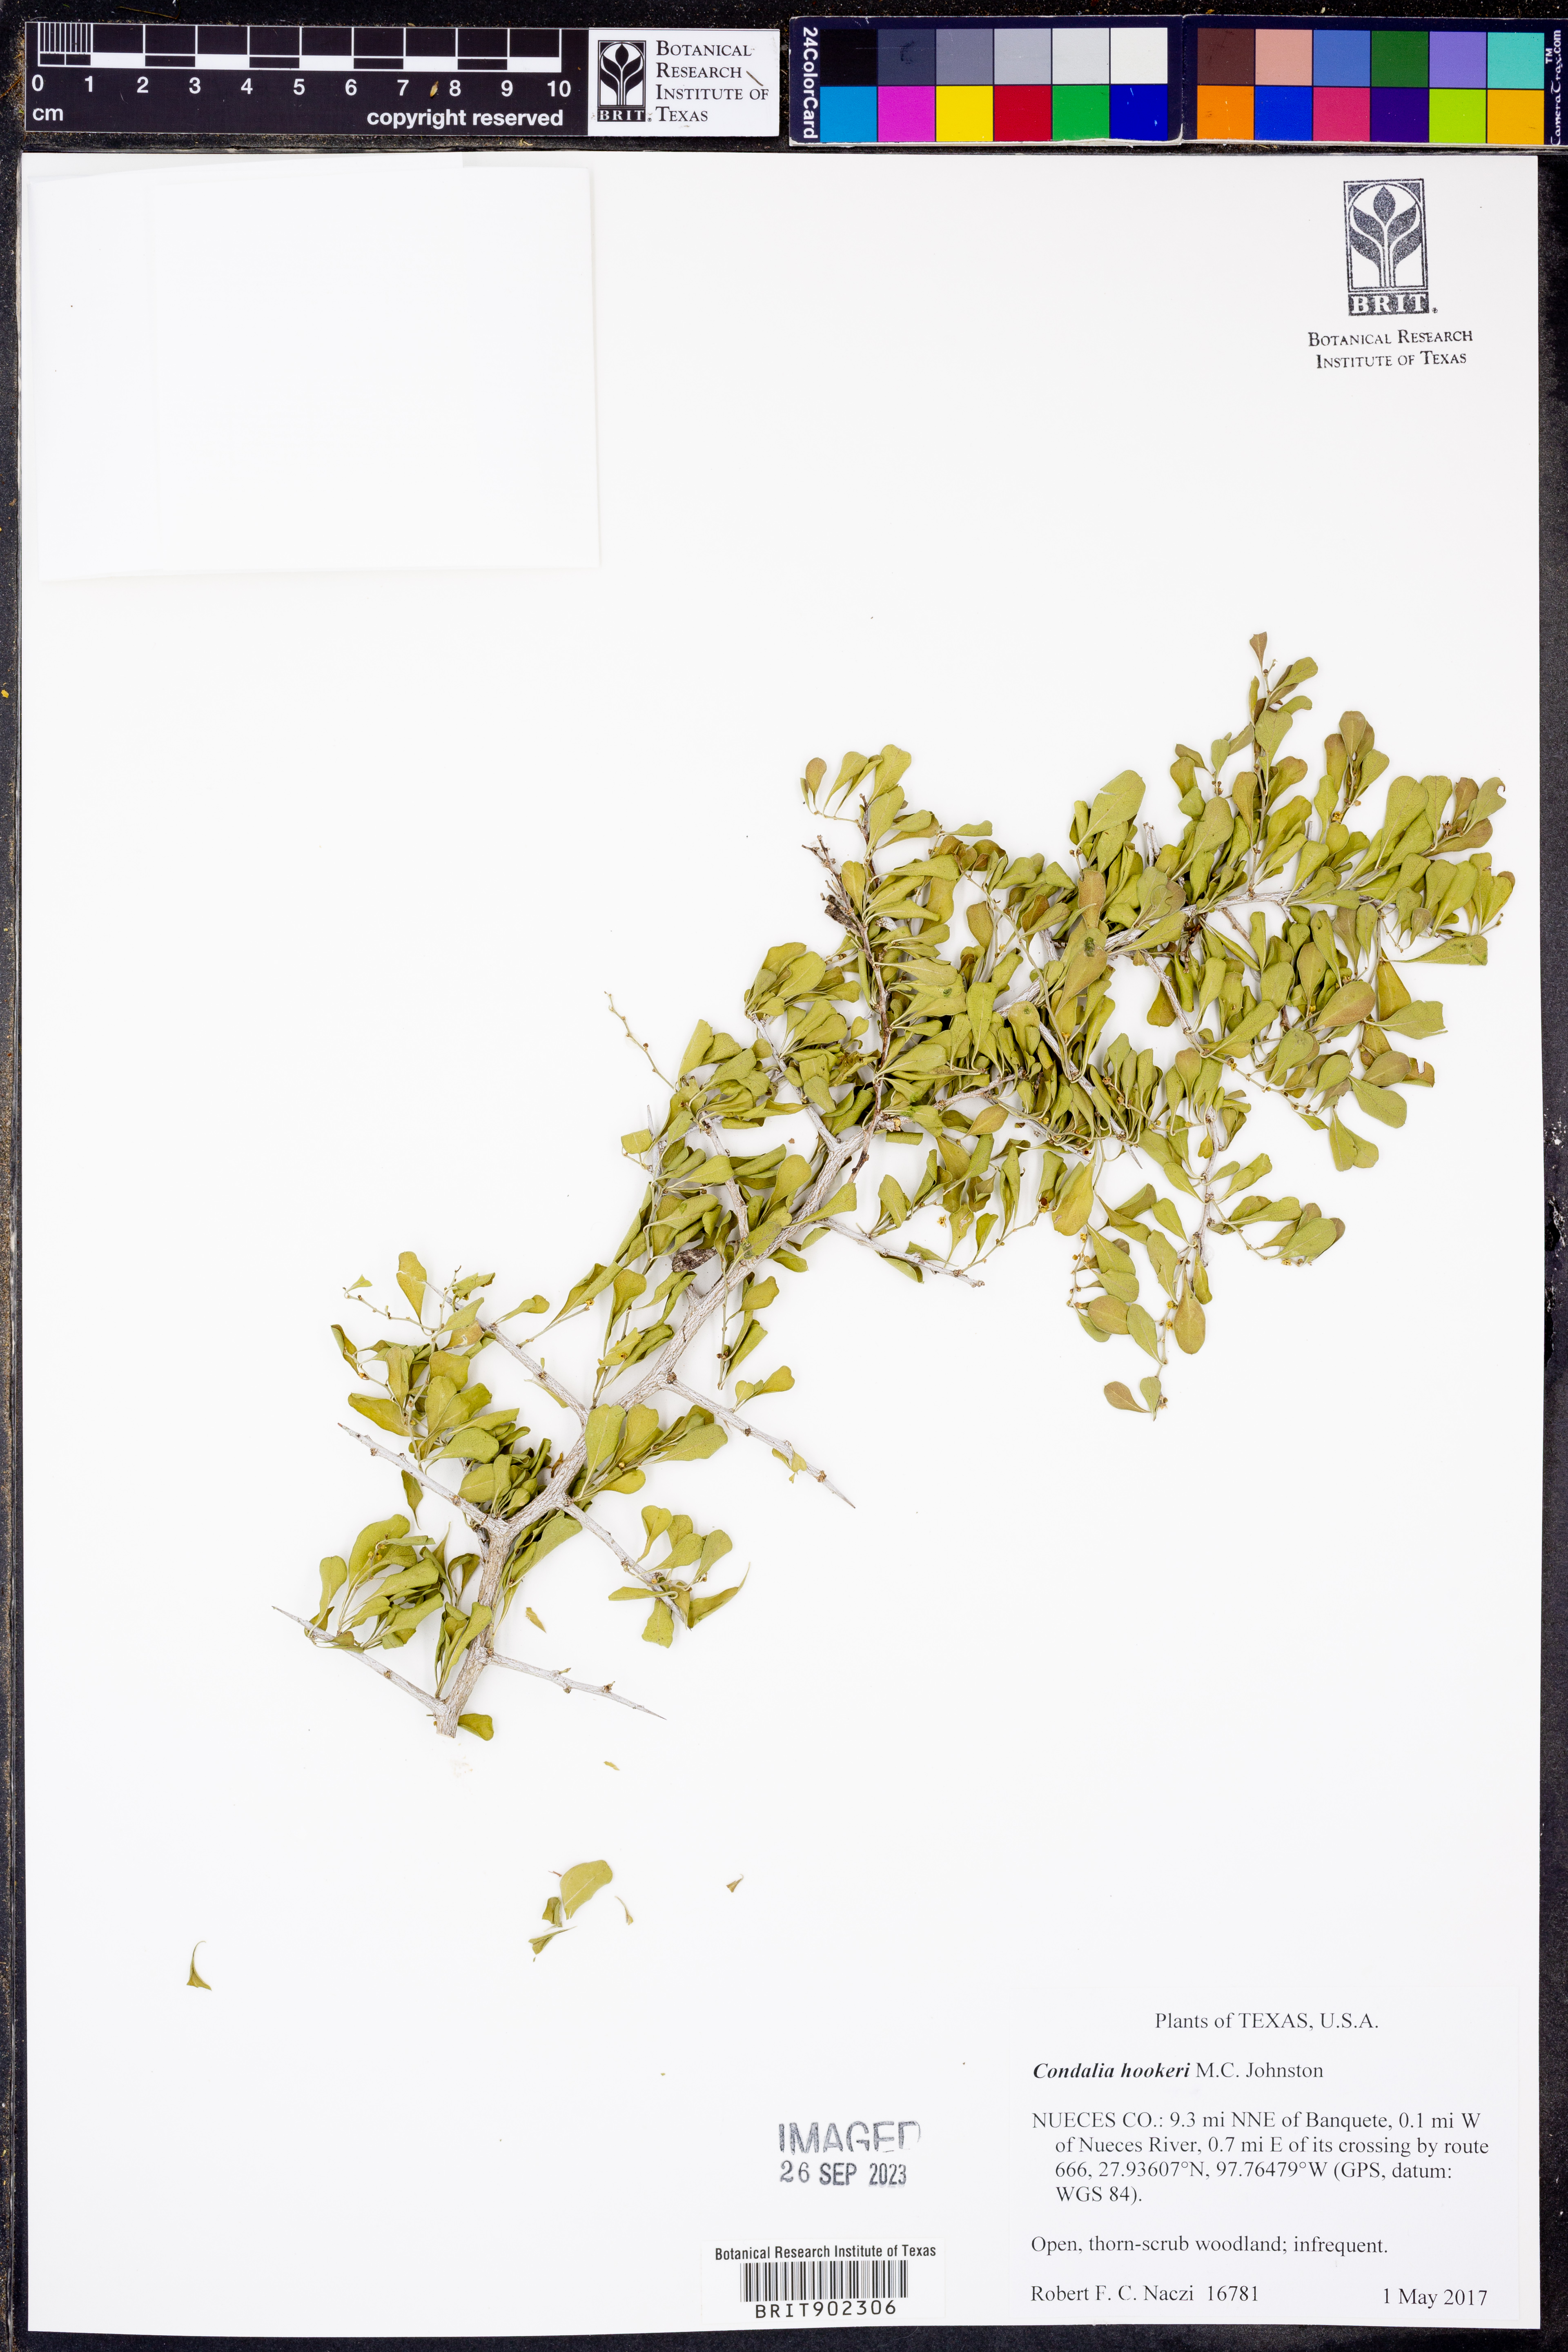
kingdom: Plantae
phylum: Tracheophyta
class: Magnoliopsida
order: Rosales
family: Rhamnaceae
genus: Condalia
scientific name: Condalia hookeri
